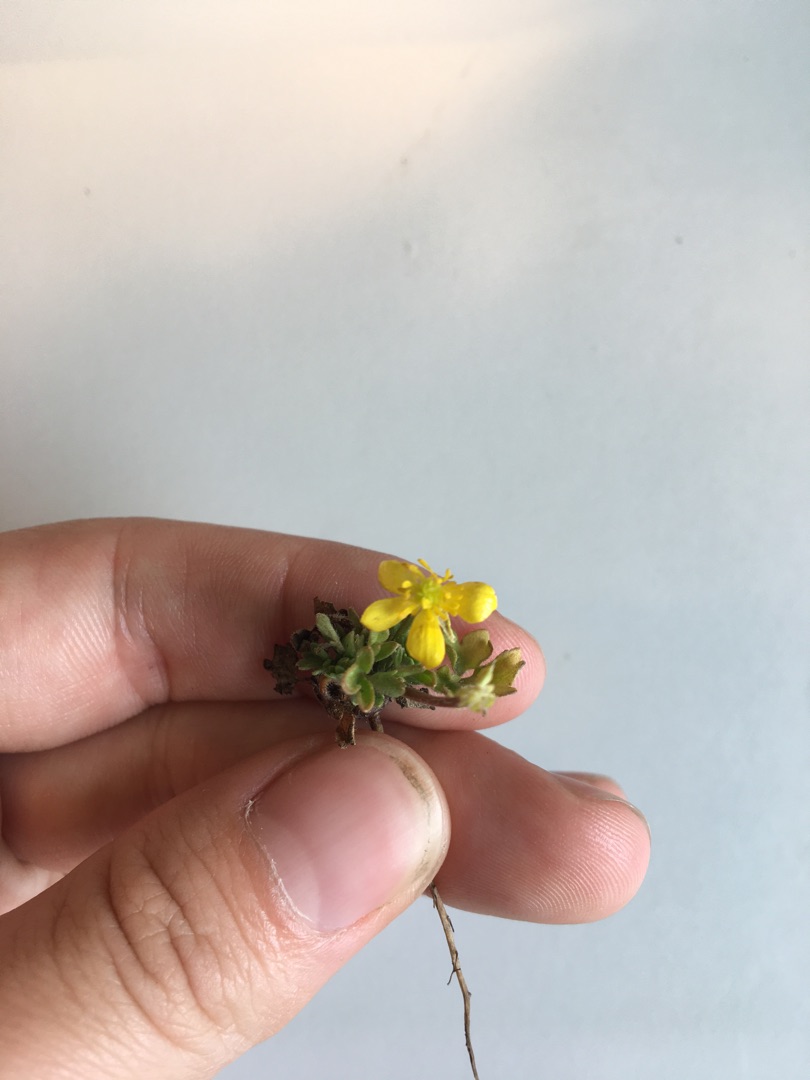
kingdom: Plantae
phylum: Tracheophyta
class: Magnoliopsida
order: Ranunculales
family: Ranunculaceae
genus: Ranunculus
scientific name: Ranunculus
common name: Ranunkelslægten
